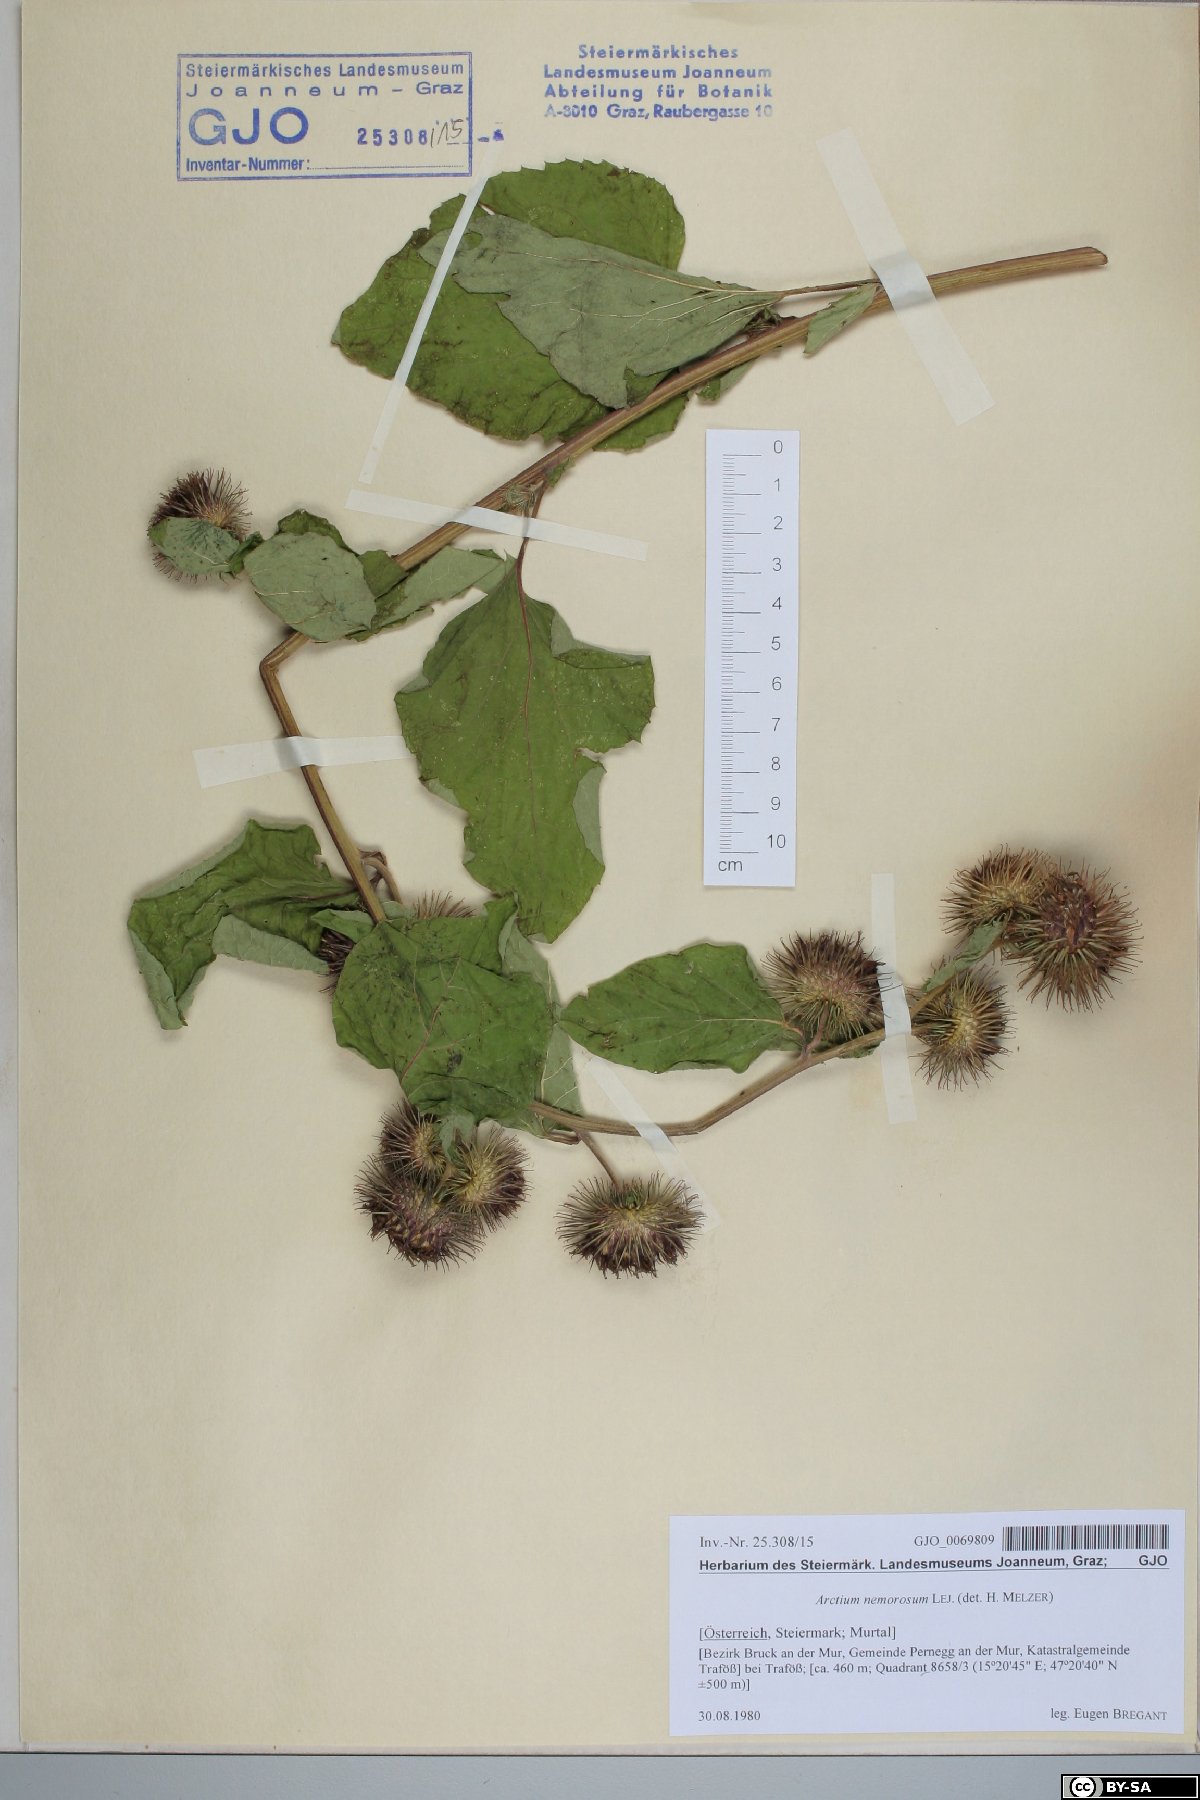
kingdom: Plantae
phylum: Tracheophyta
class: Magnoliopsida
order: Asterales
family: Asteraceae
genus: Arctium
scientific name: Arctium nemorosum
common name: Wood burdock
